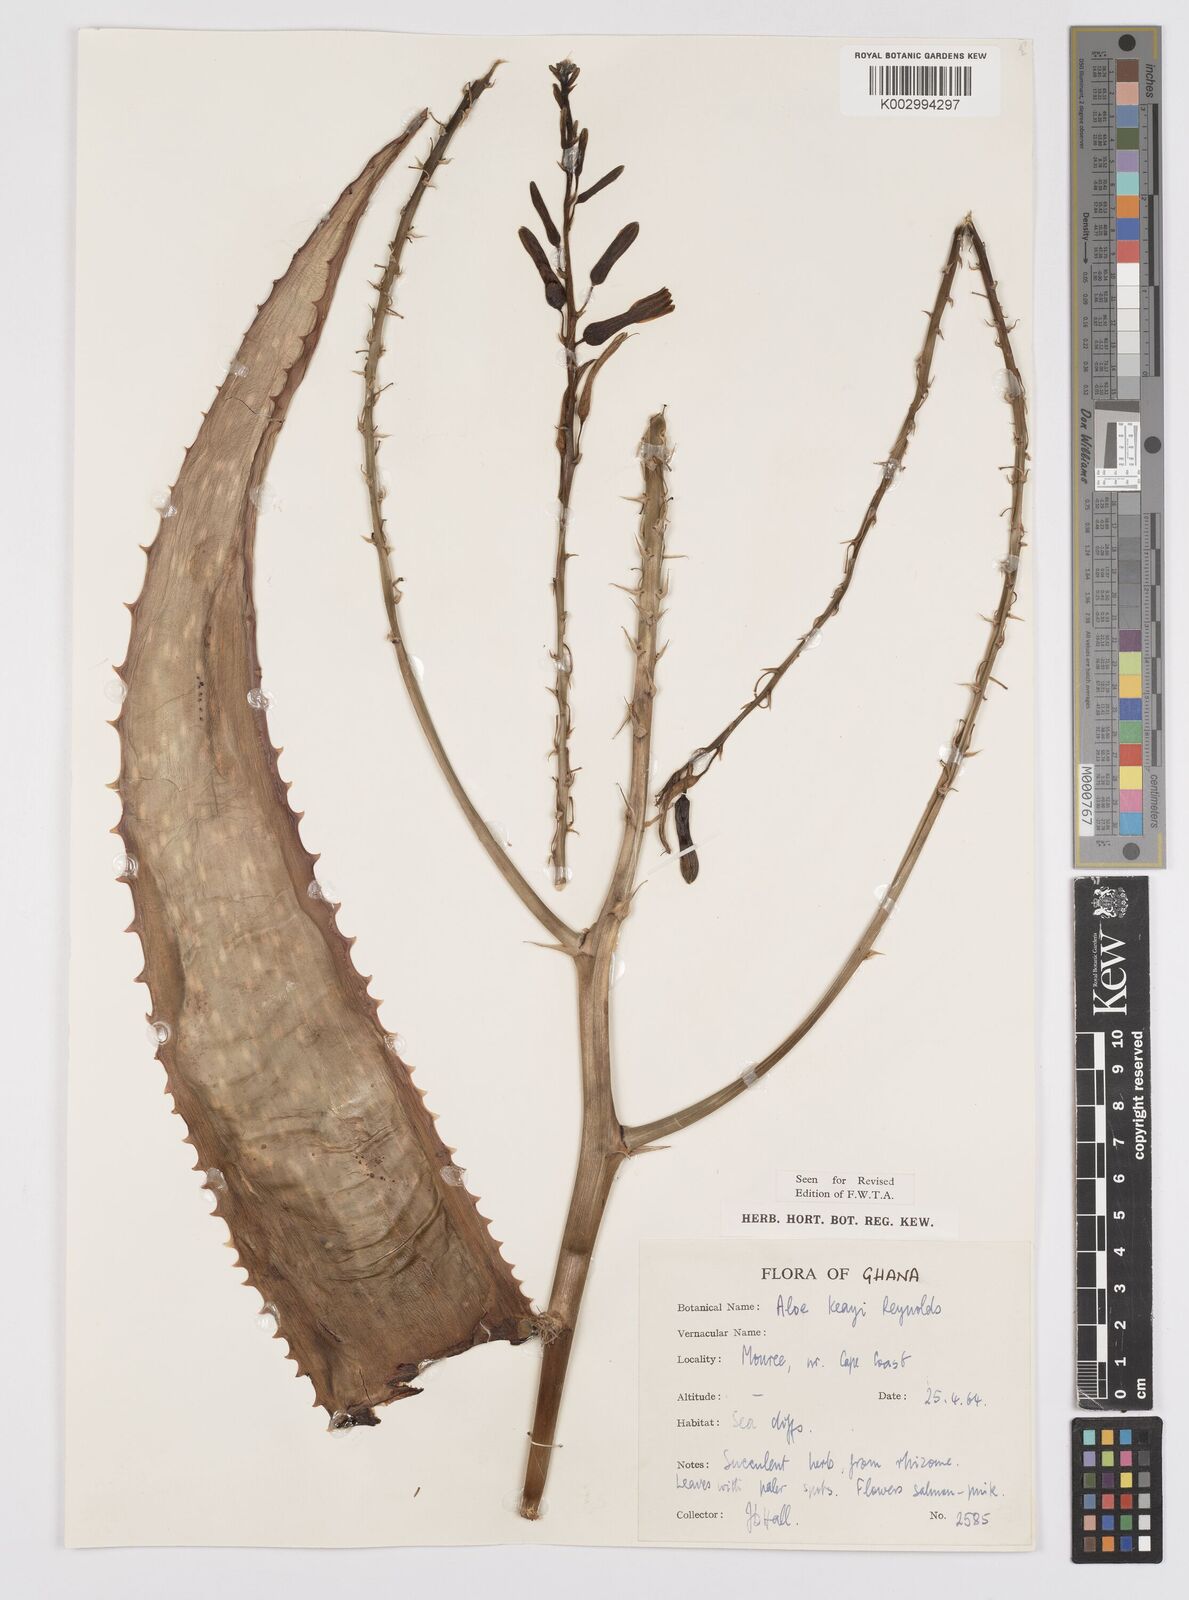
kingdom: Plantae
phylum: Tracheophyta
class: Liliopsida
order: Asparagales
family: Asphodelaceae
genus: Aloe
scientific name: Aloe keayi
